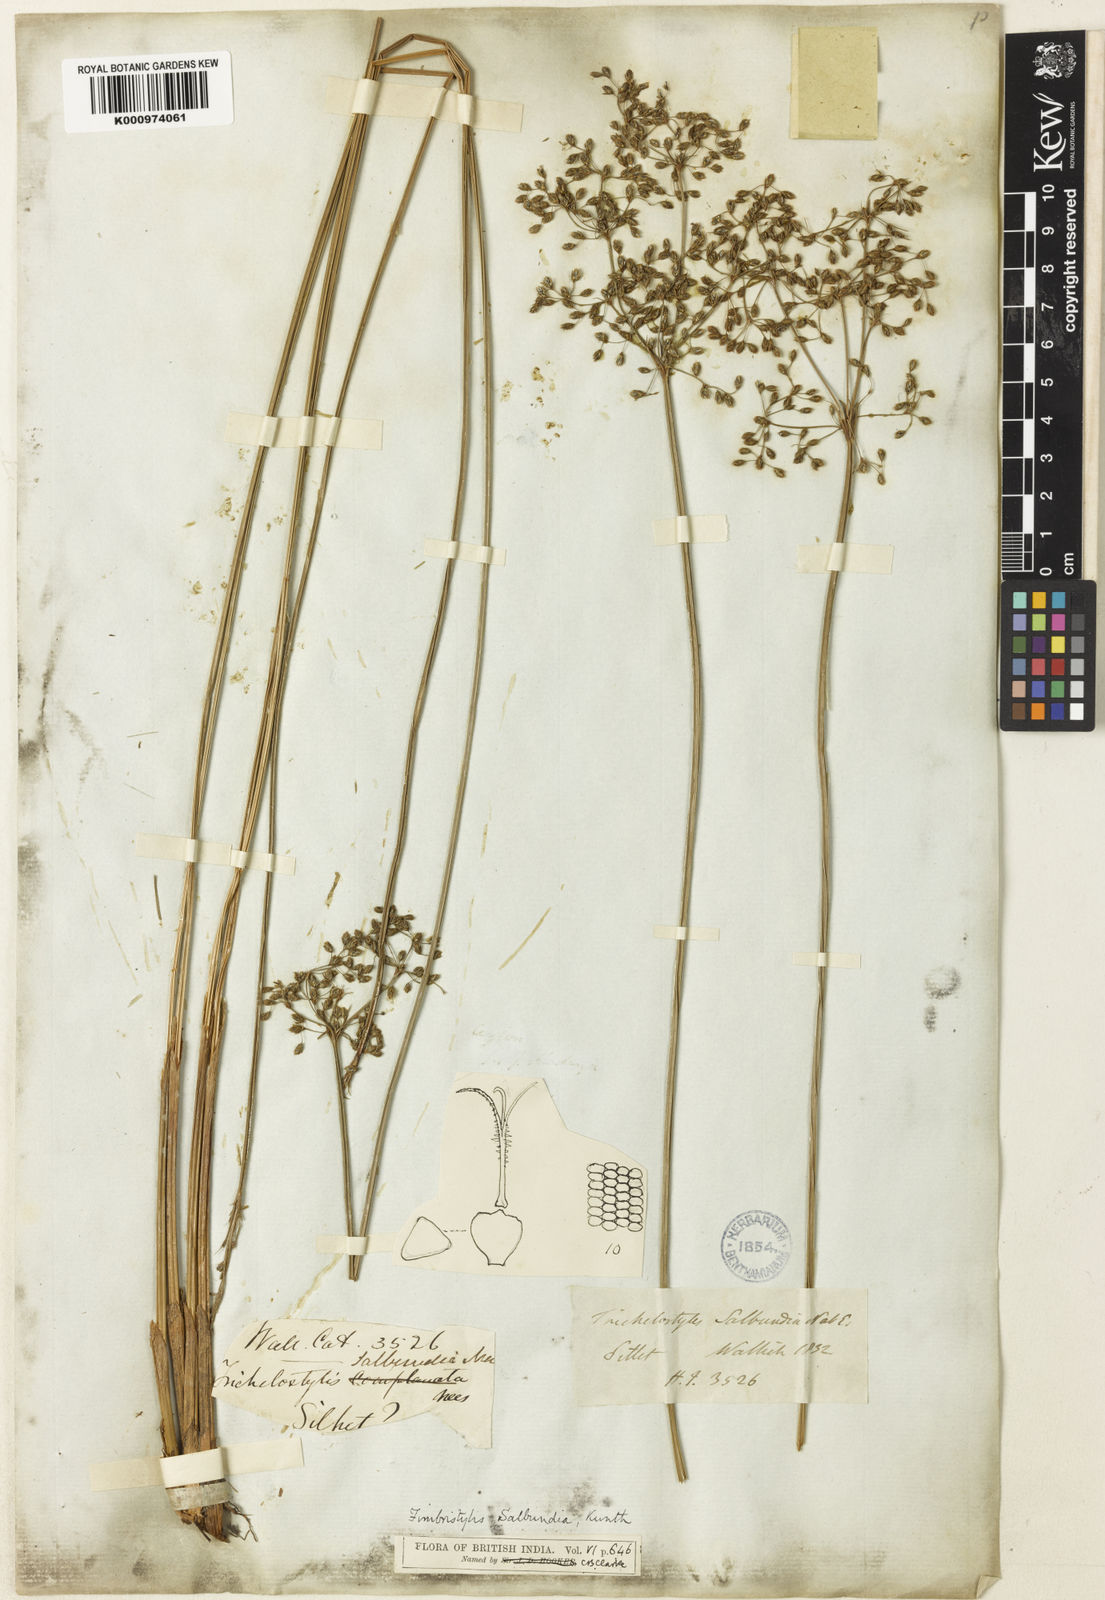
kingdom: Plantae
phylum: Tracheophyta
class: Liliopsida
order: Poales
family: Cyperaceae
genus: Fimbristylis
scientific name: Fimbristylis salbundia
